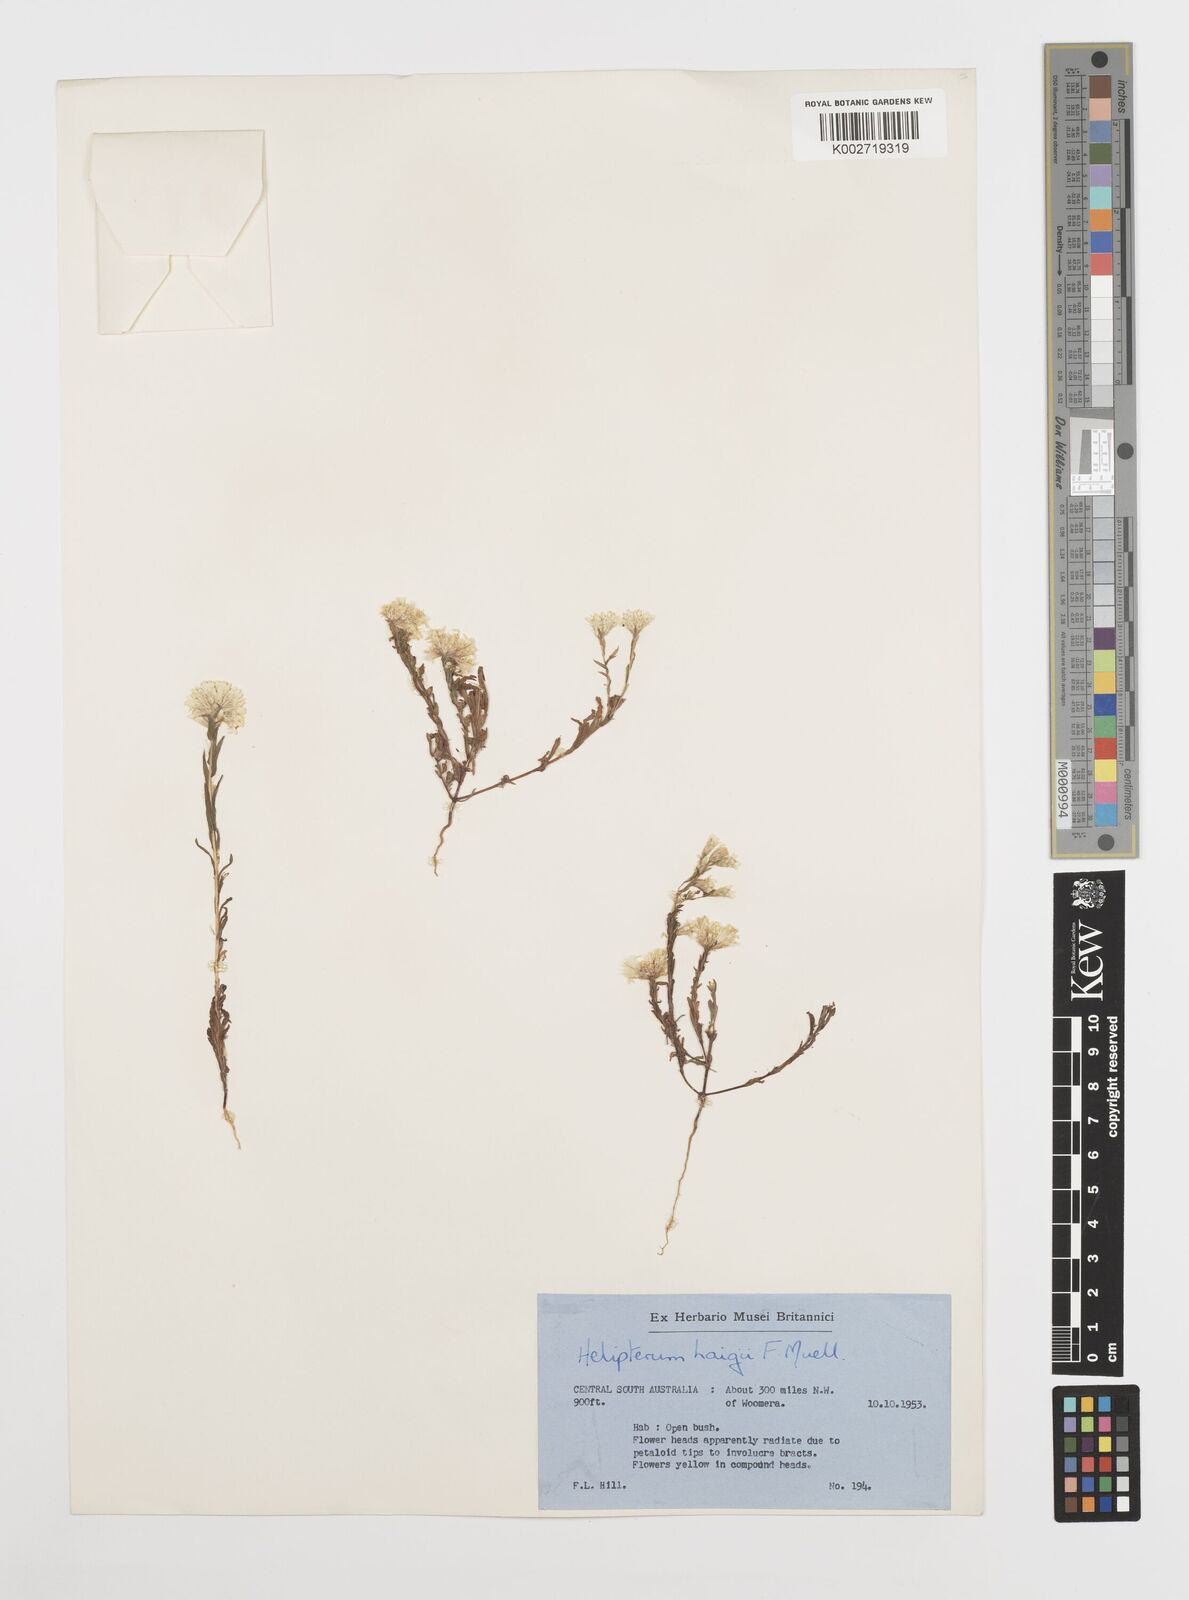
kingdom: Plantae
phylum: Tracheophyta
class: Magnoliopsida
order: Asterales
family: Asteraceae
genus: Rhodanthe
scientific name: Rhodanthe haigii
